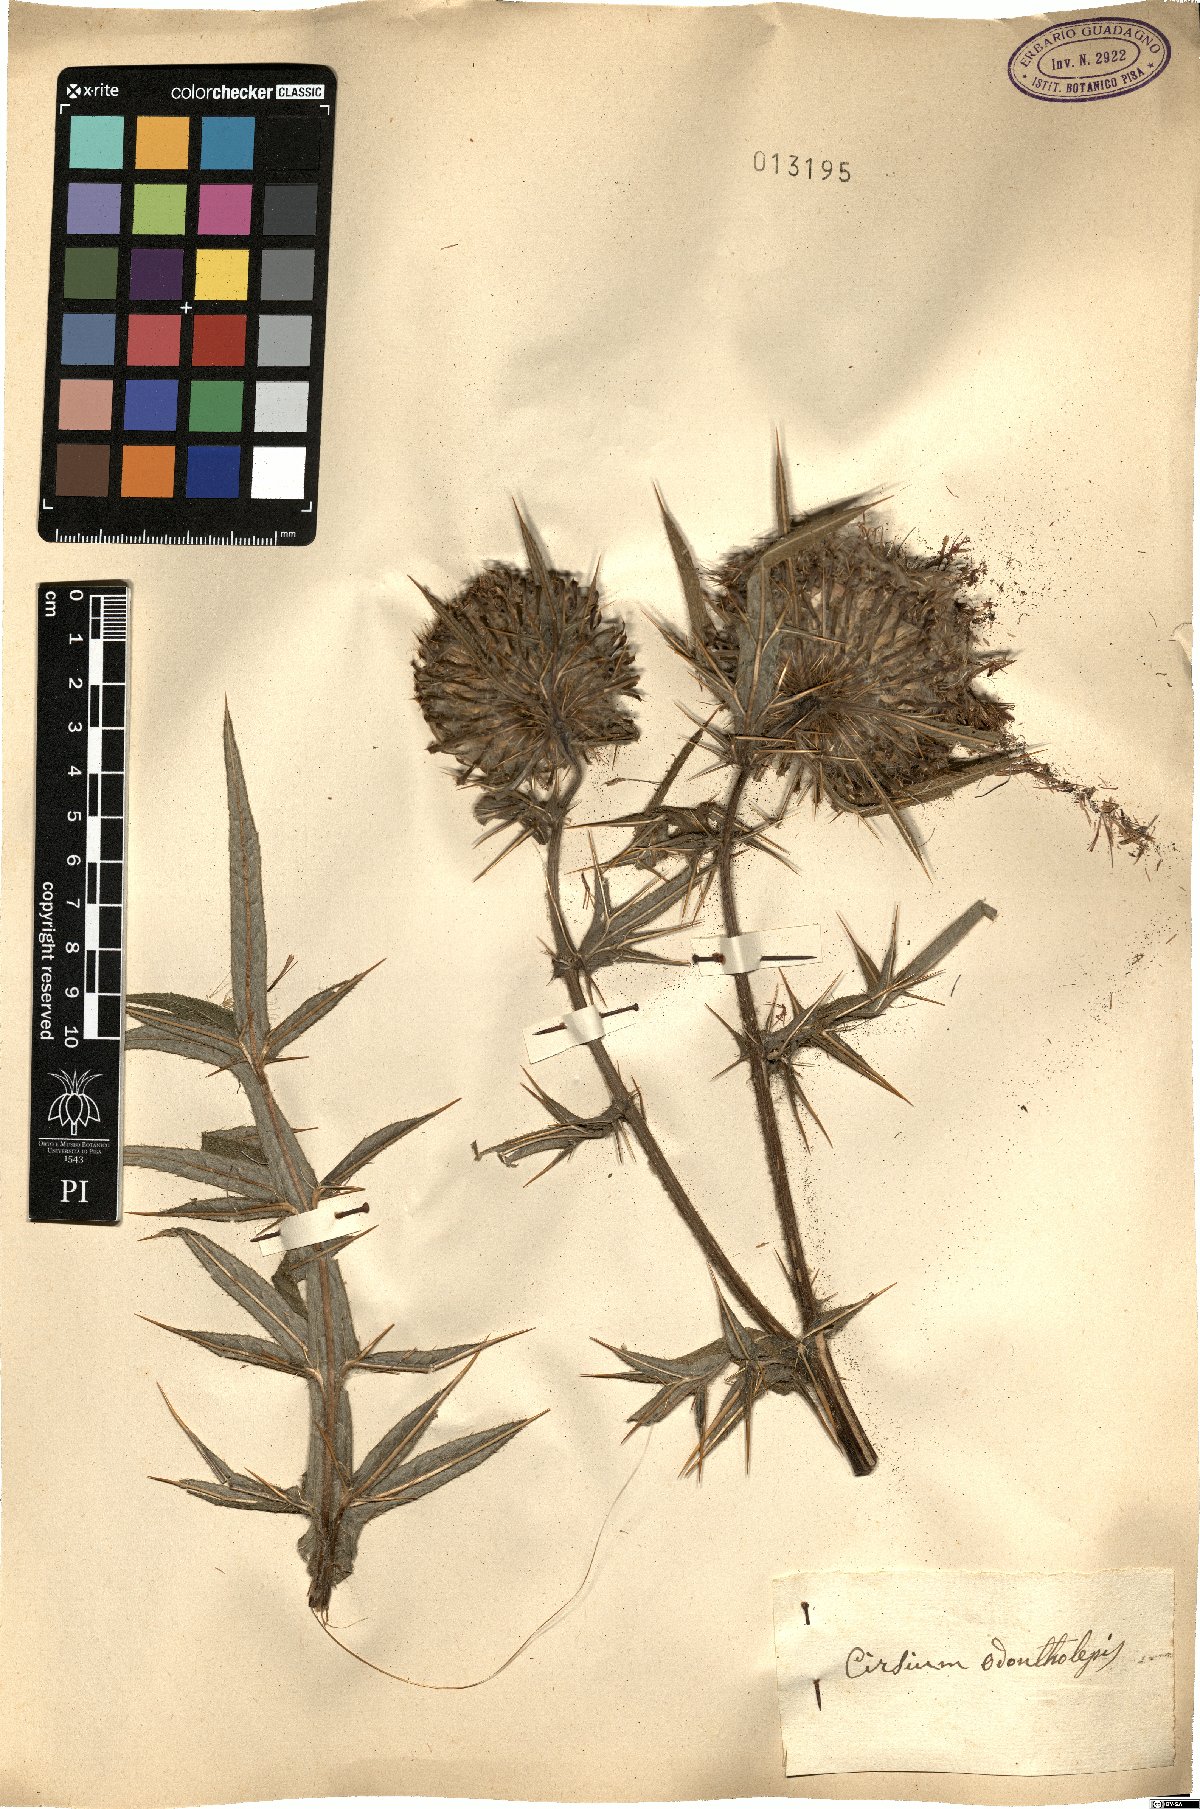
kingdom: Plantae
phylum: Tracheophyta
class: Magnoliopsida
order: Asterales
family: Asteraceae
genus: Lophiolepis
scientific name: Lophiolepis odontolepis
